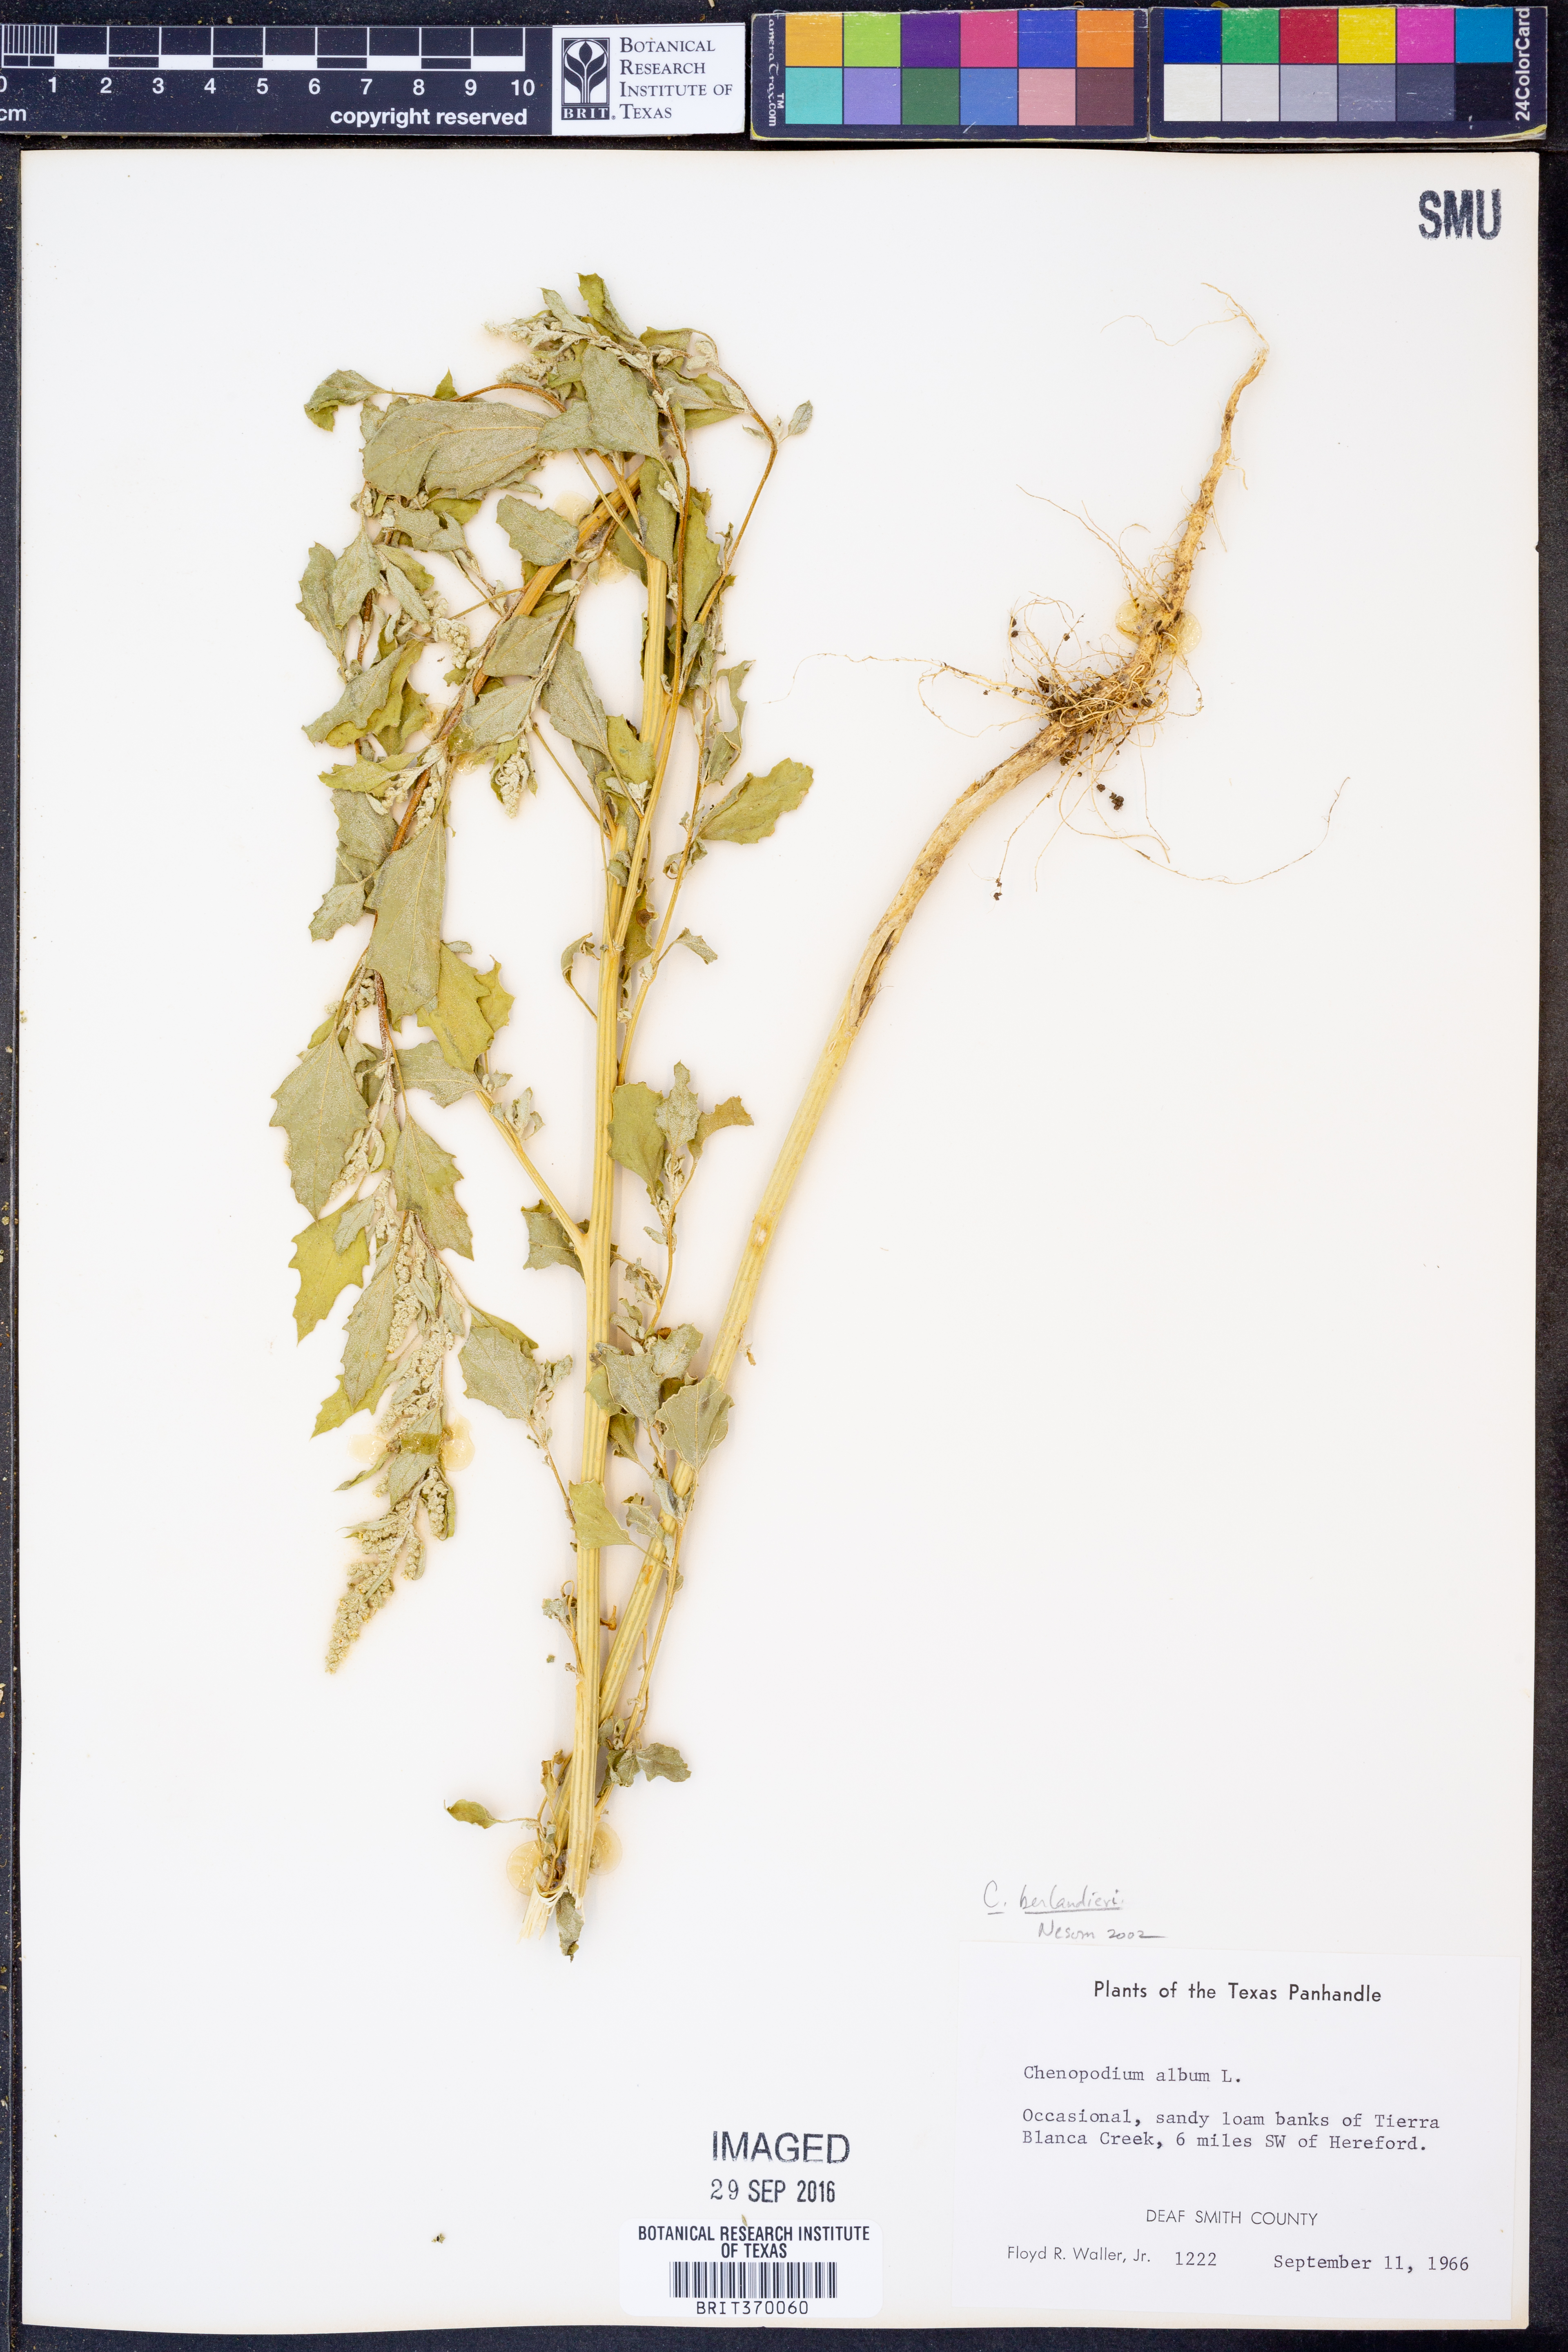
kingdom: Plantae
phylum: Tracheophyta
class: Magnoliopsida
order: Caryophyllales
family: Amaranthaceae
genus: Chenopodium
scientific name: Chenopodium berlandieri
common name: Pit-seed goosefoot
